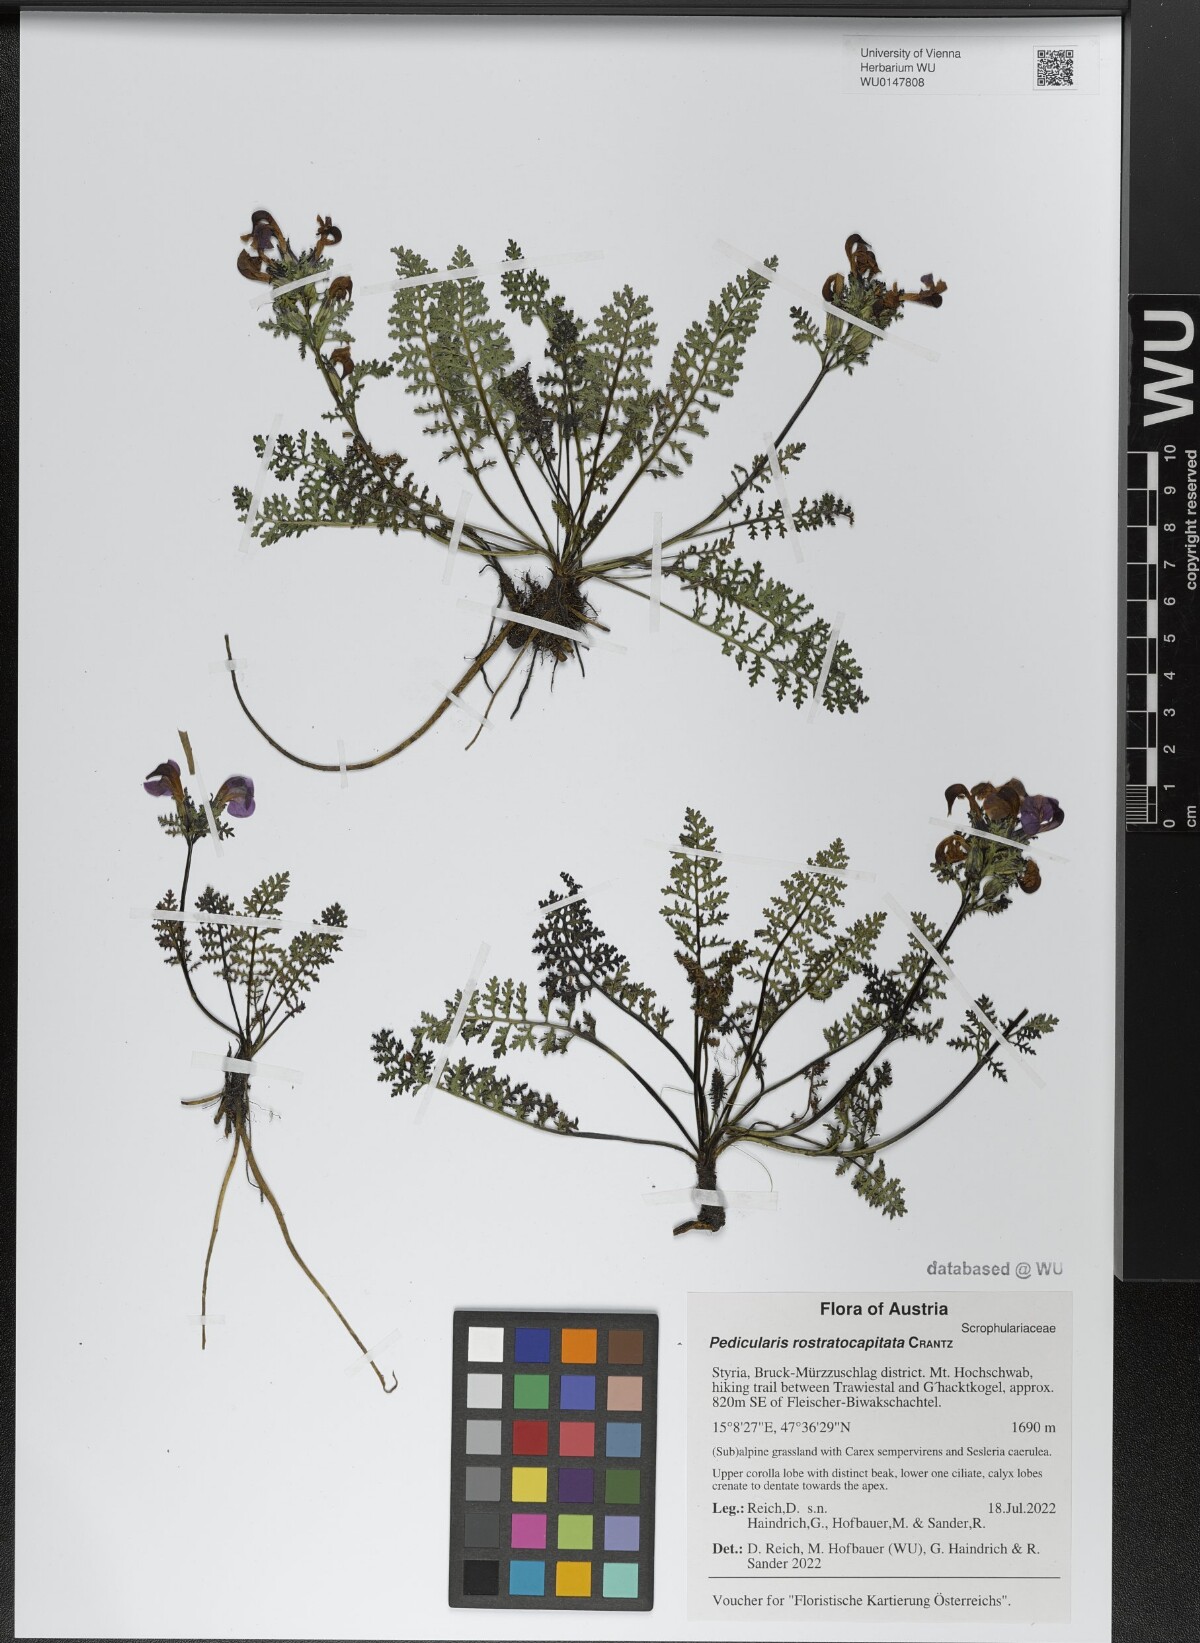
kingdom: Plantae
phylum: Tracheophyta
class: Magnoliopsida
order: Lamiales
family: Orobanchaceae
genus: Pedicularis
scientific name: Pedicularis rostratocapitata
